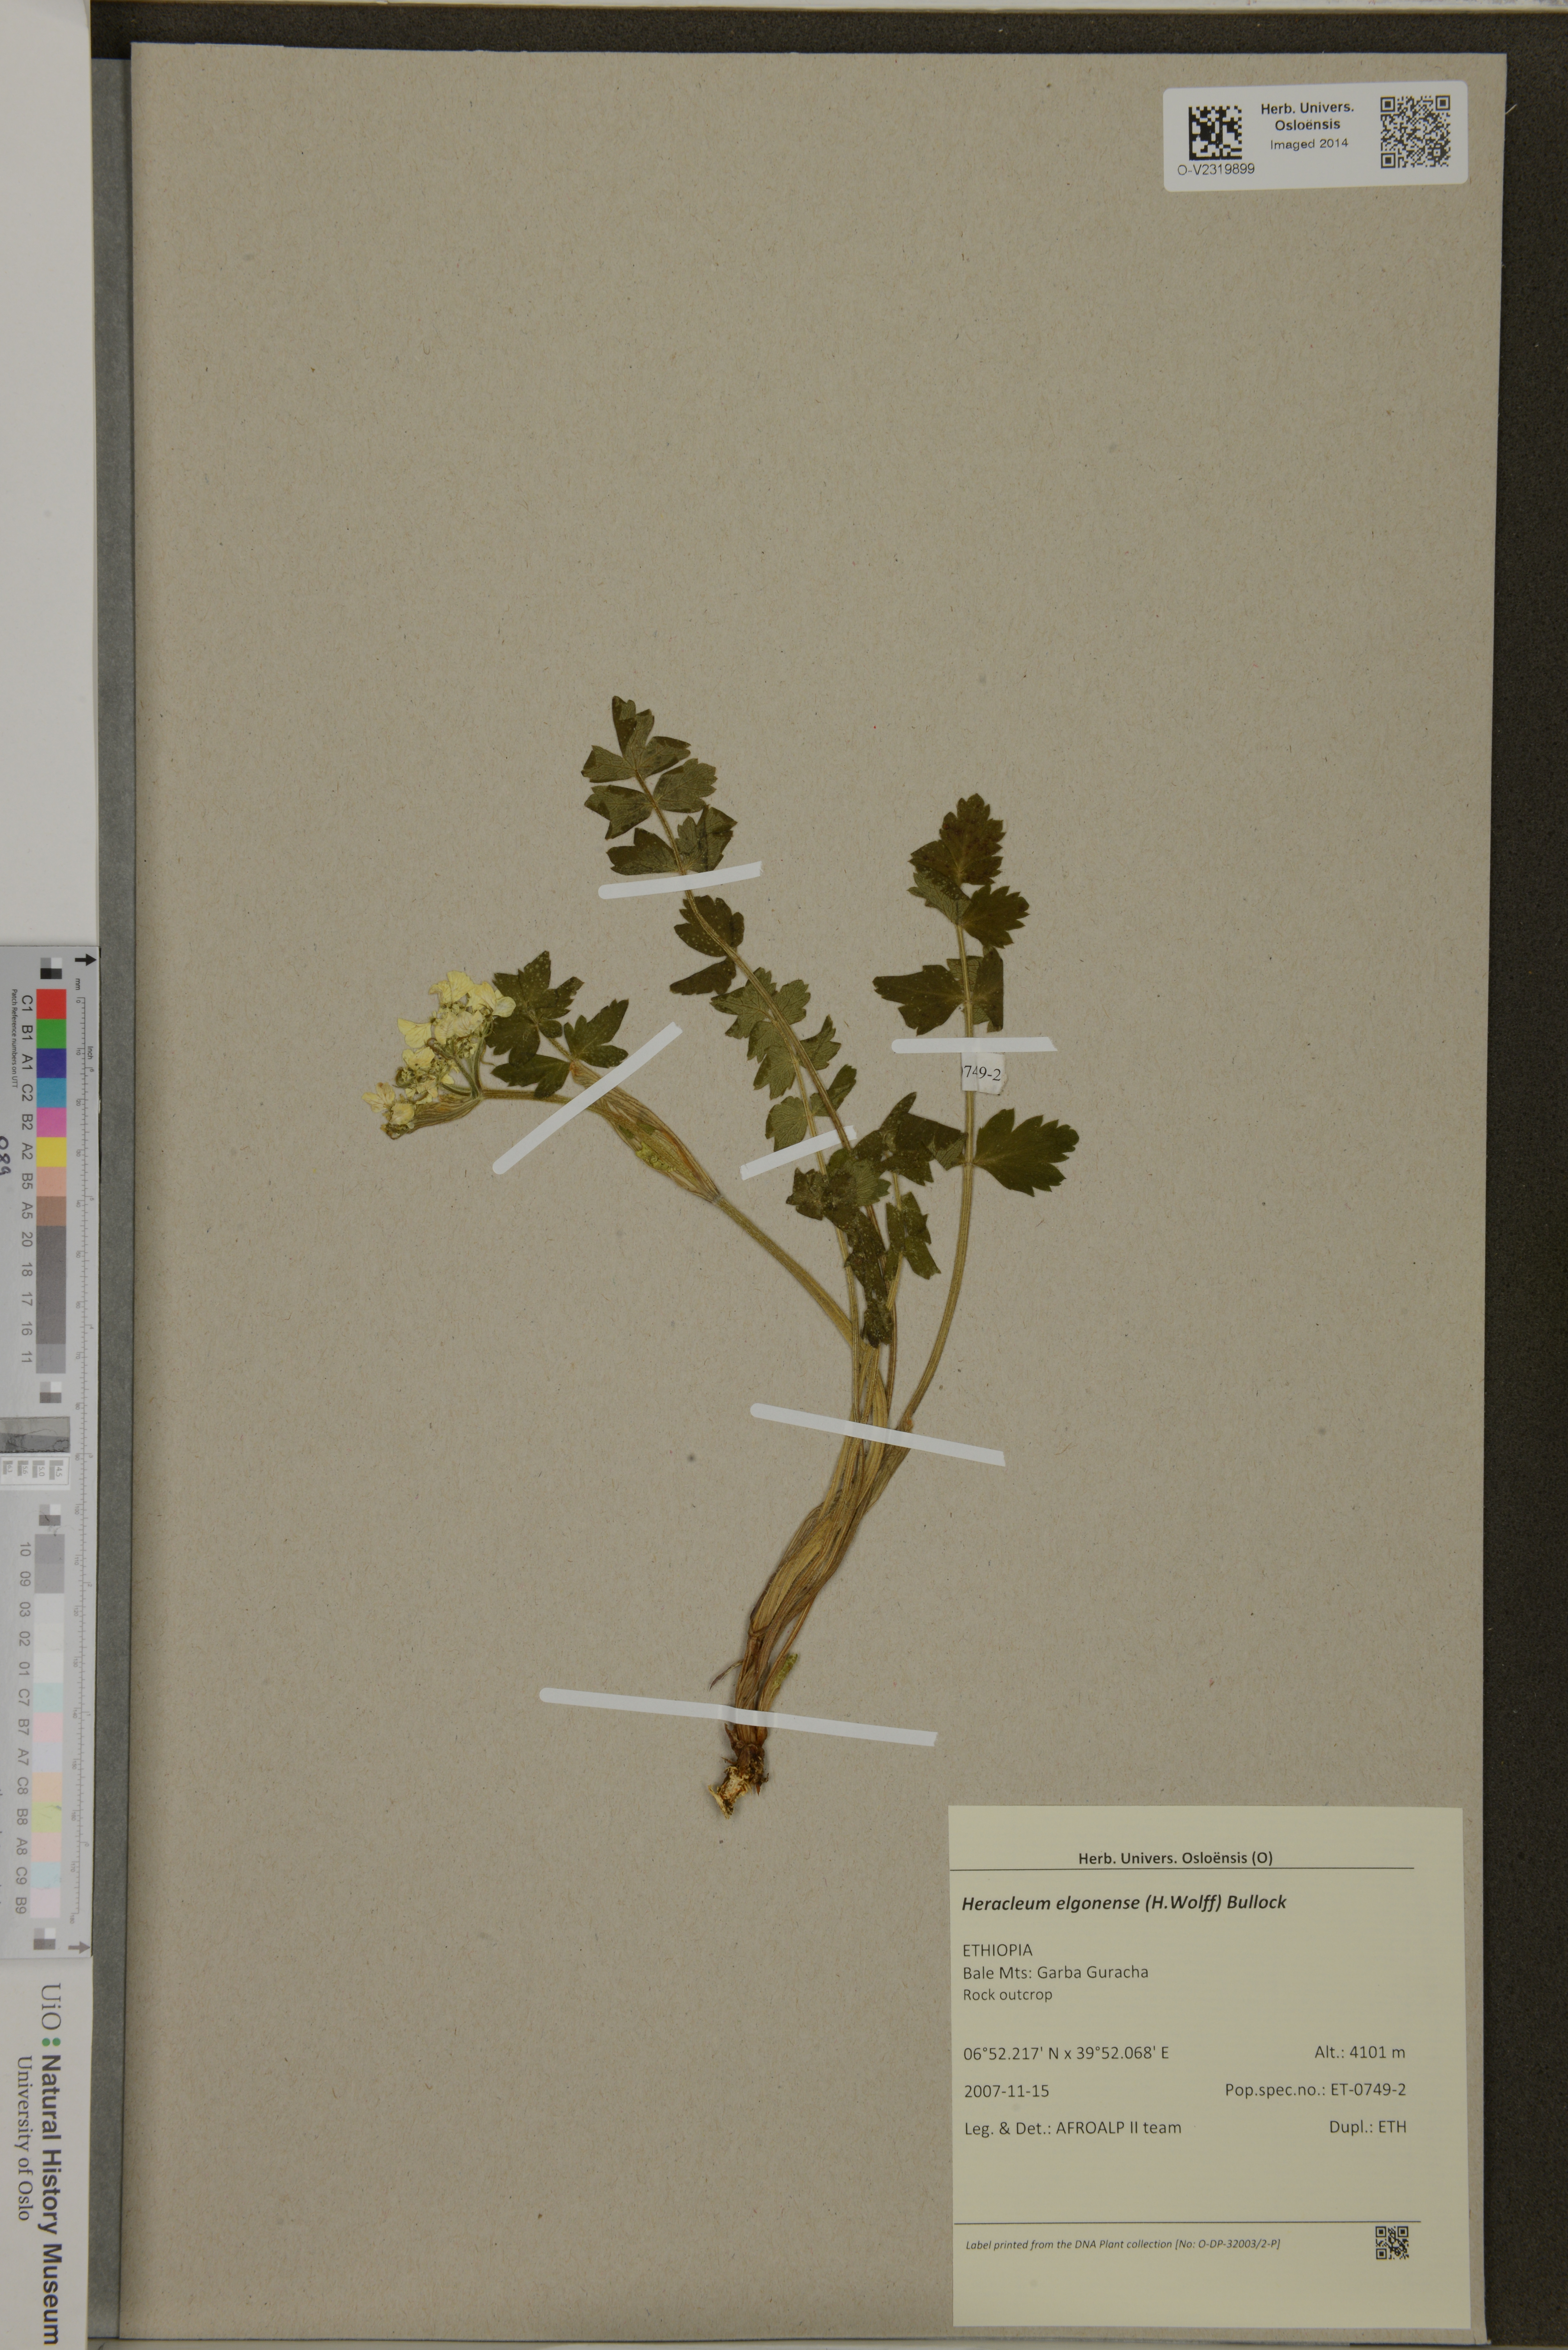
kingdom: Plantae
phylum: Tracheophyta
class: Magnoliopsida
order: Apiales
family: Apiaceae
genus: Heracleum
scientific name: Heracleum elgonense
